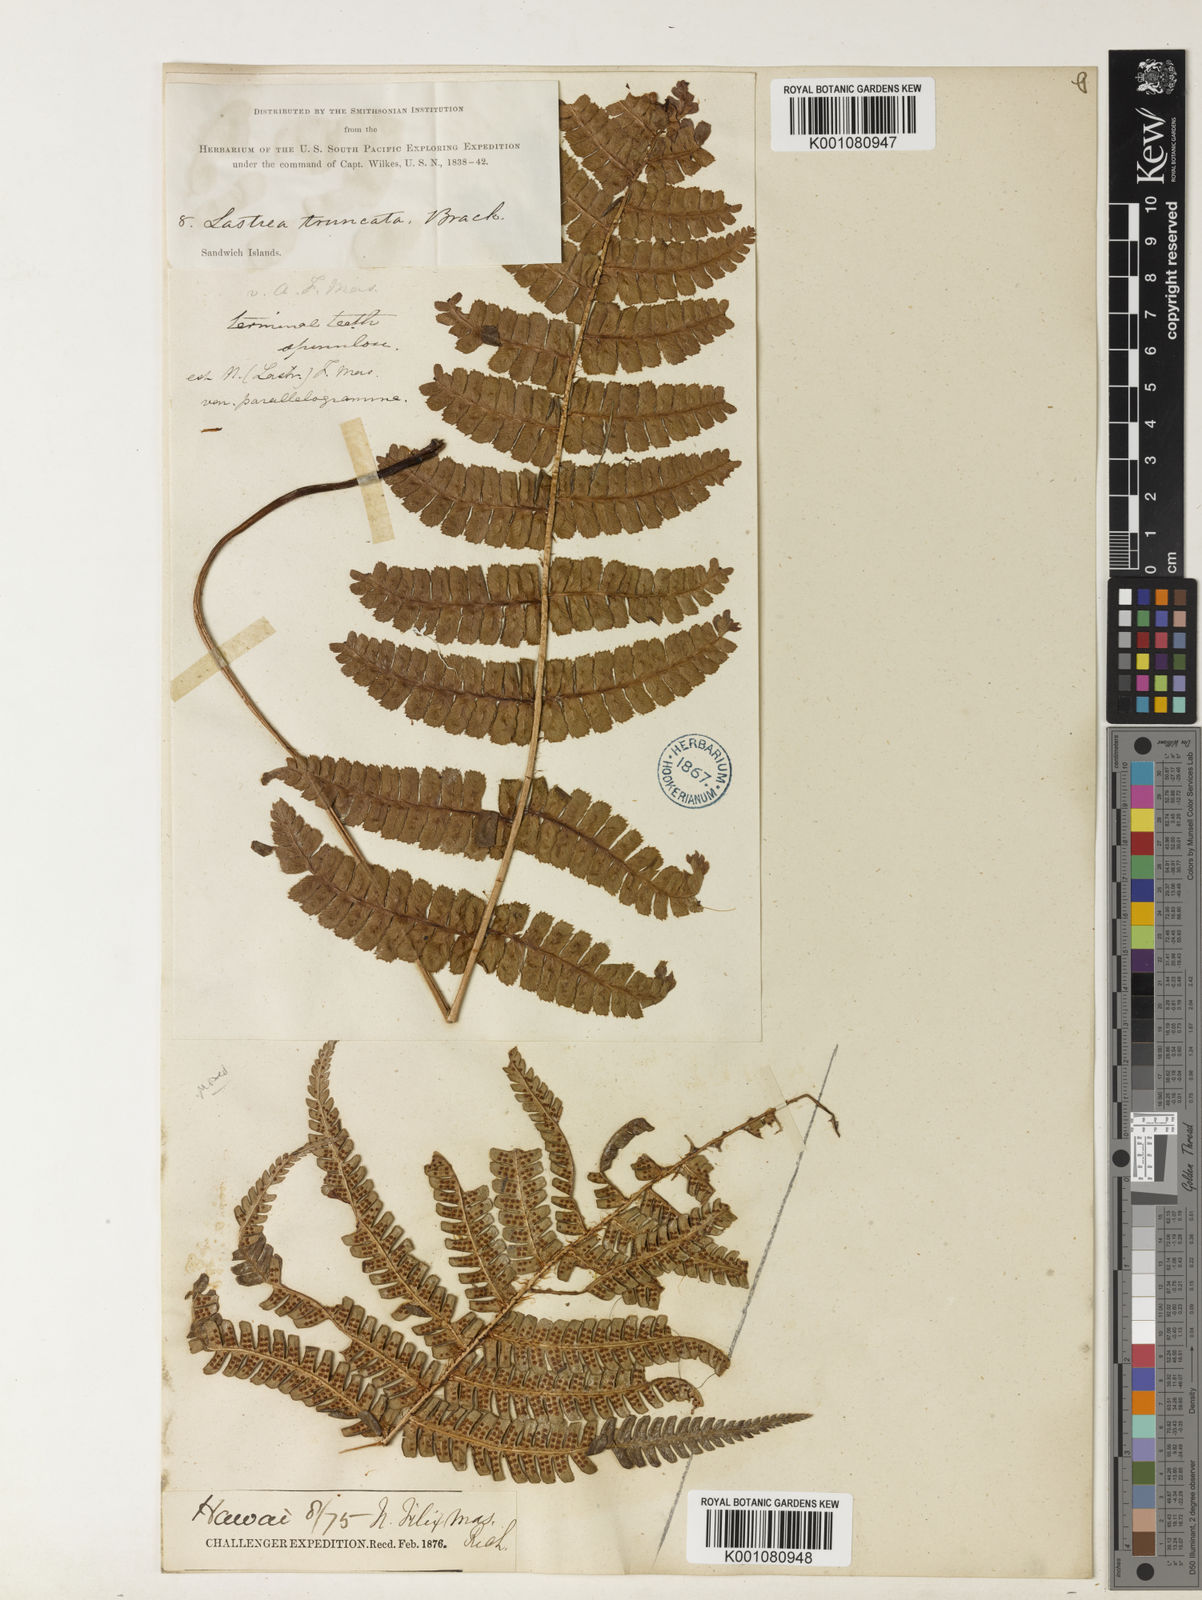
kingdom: Plantae
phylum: Tracheophyta
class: Polypodiopsida
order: Polypodiales
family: Dryopteridaceae
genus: Dryopteris
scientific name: Dryopteris borreri
